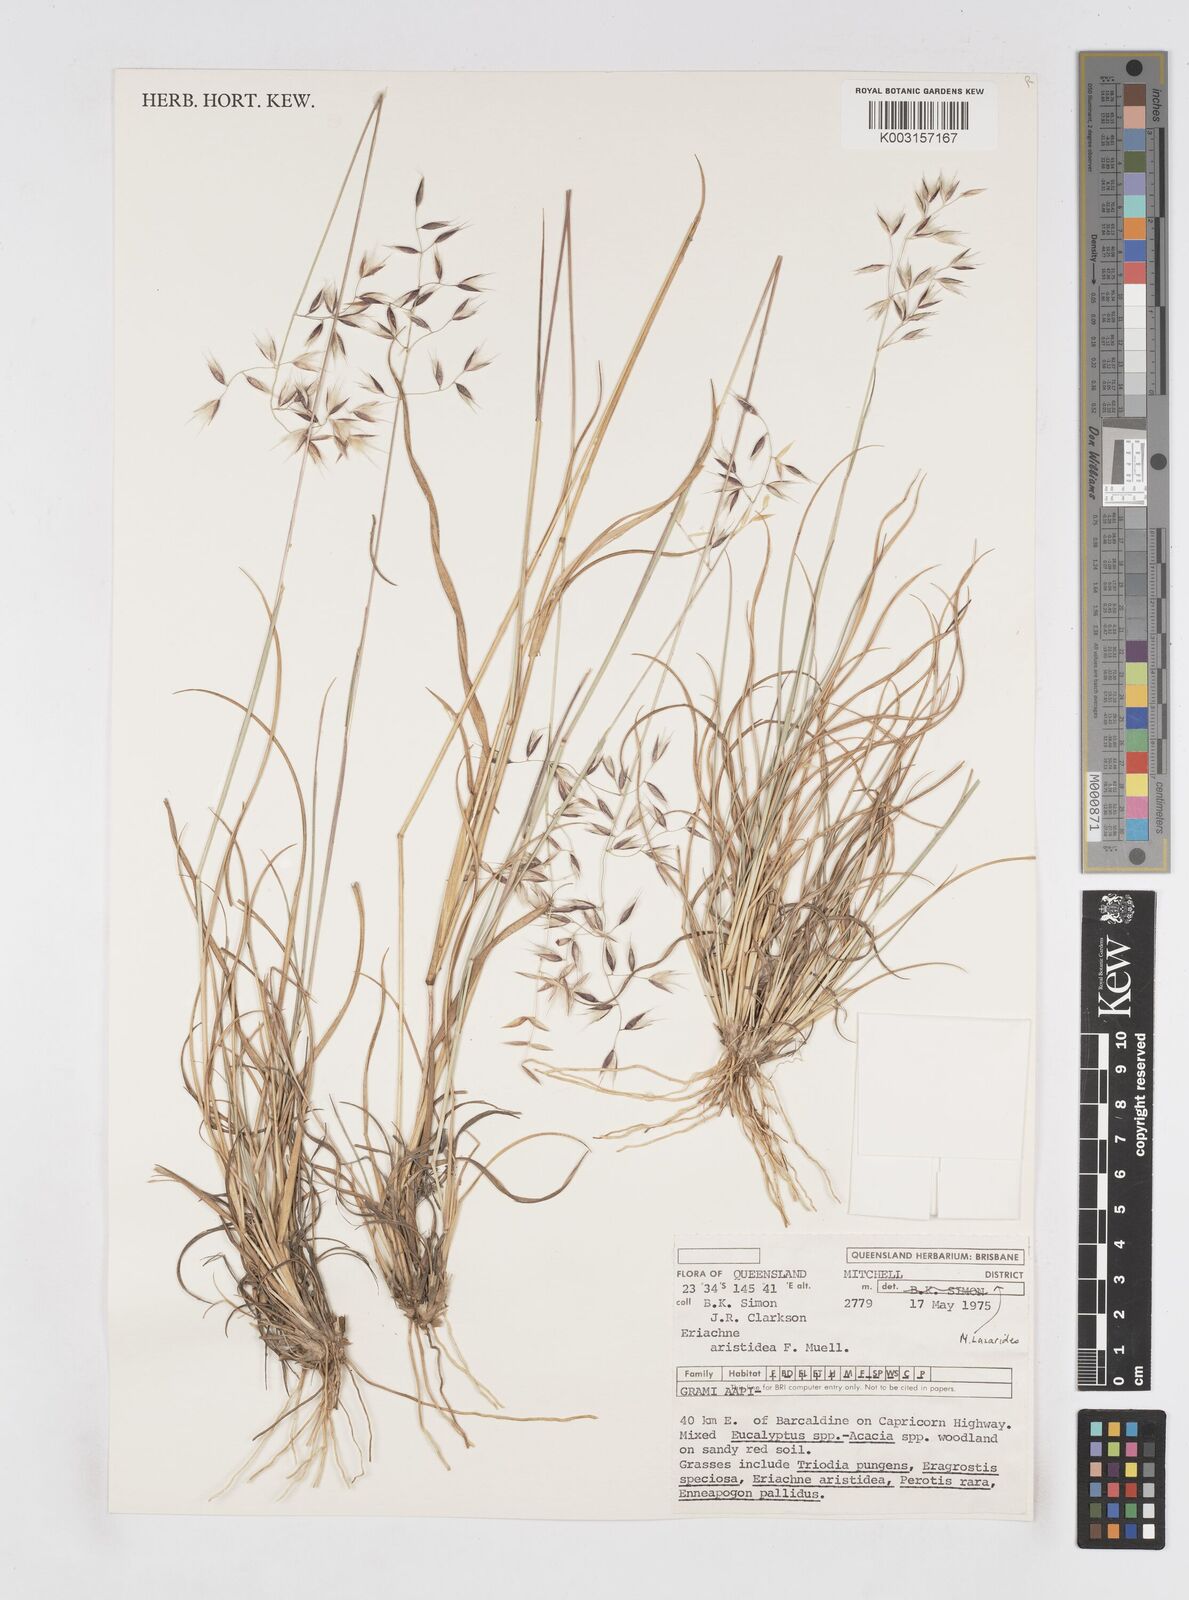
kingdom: Plantae
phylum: Tracheophyta
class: Liliopsida
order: Poales
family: Poaceae
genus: Eriachne
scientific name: Eriachne aristidea
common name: Three-awn wanderrie grass
